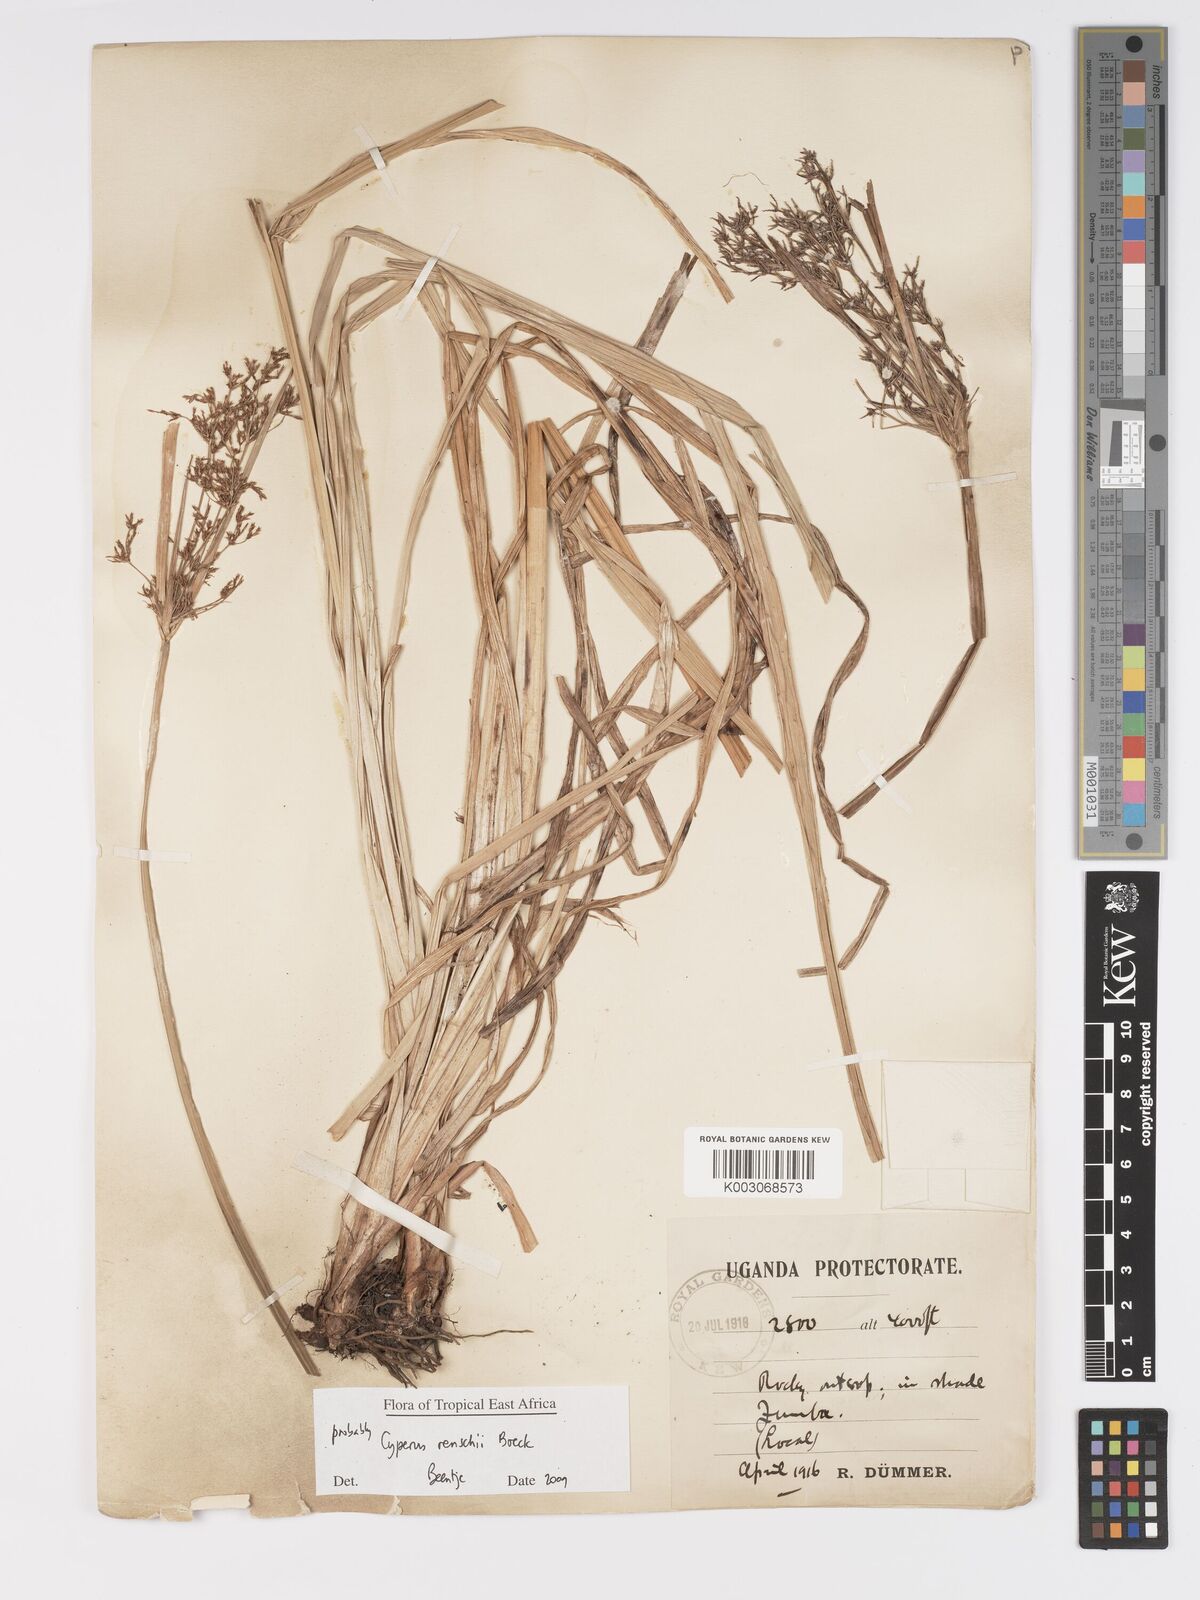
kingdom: Plantae
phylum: Tracheophyta
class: Liliopsida
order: Poales
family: Cyperaceae
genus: Cyperus
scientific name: Cyperus renschii
